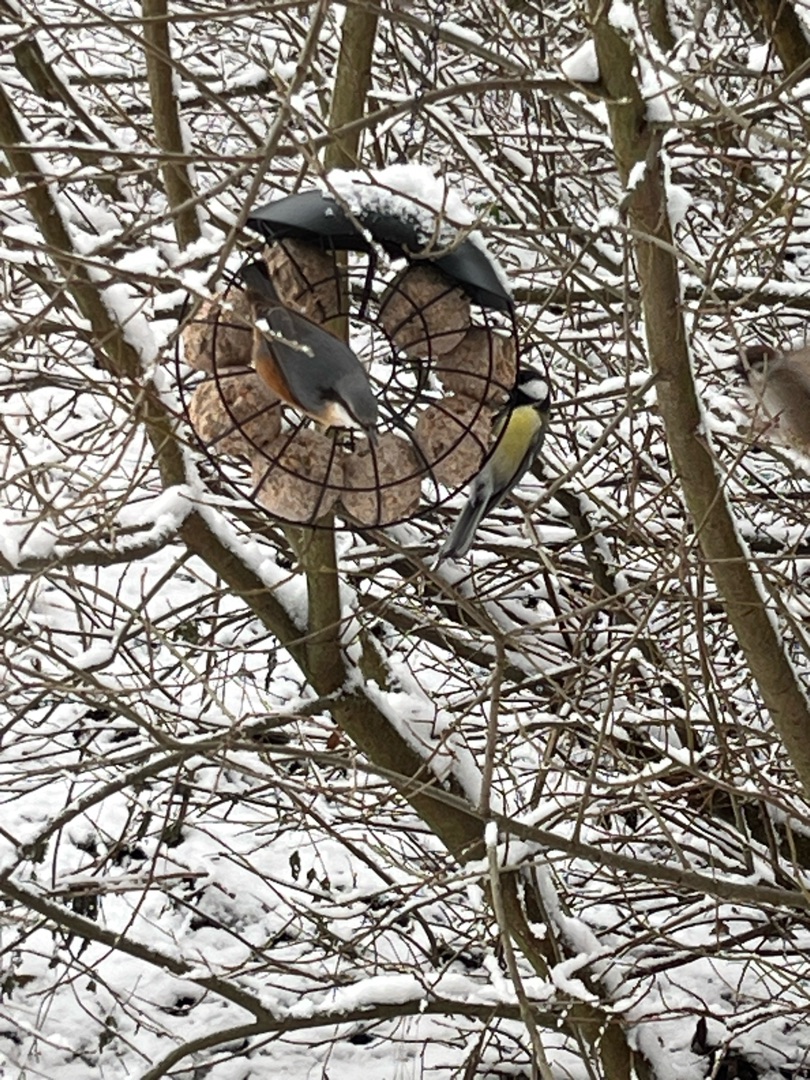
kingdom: Animalia
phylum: Chordata
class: Aves
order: Passeriformes
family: Sittidae
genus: Sitta
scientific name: Sitta europaea
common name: Spætmejse
